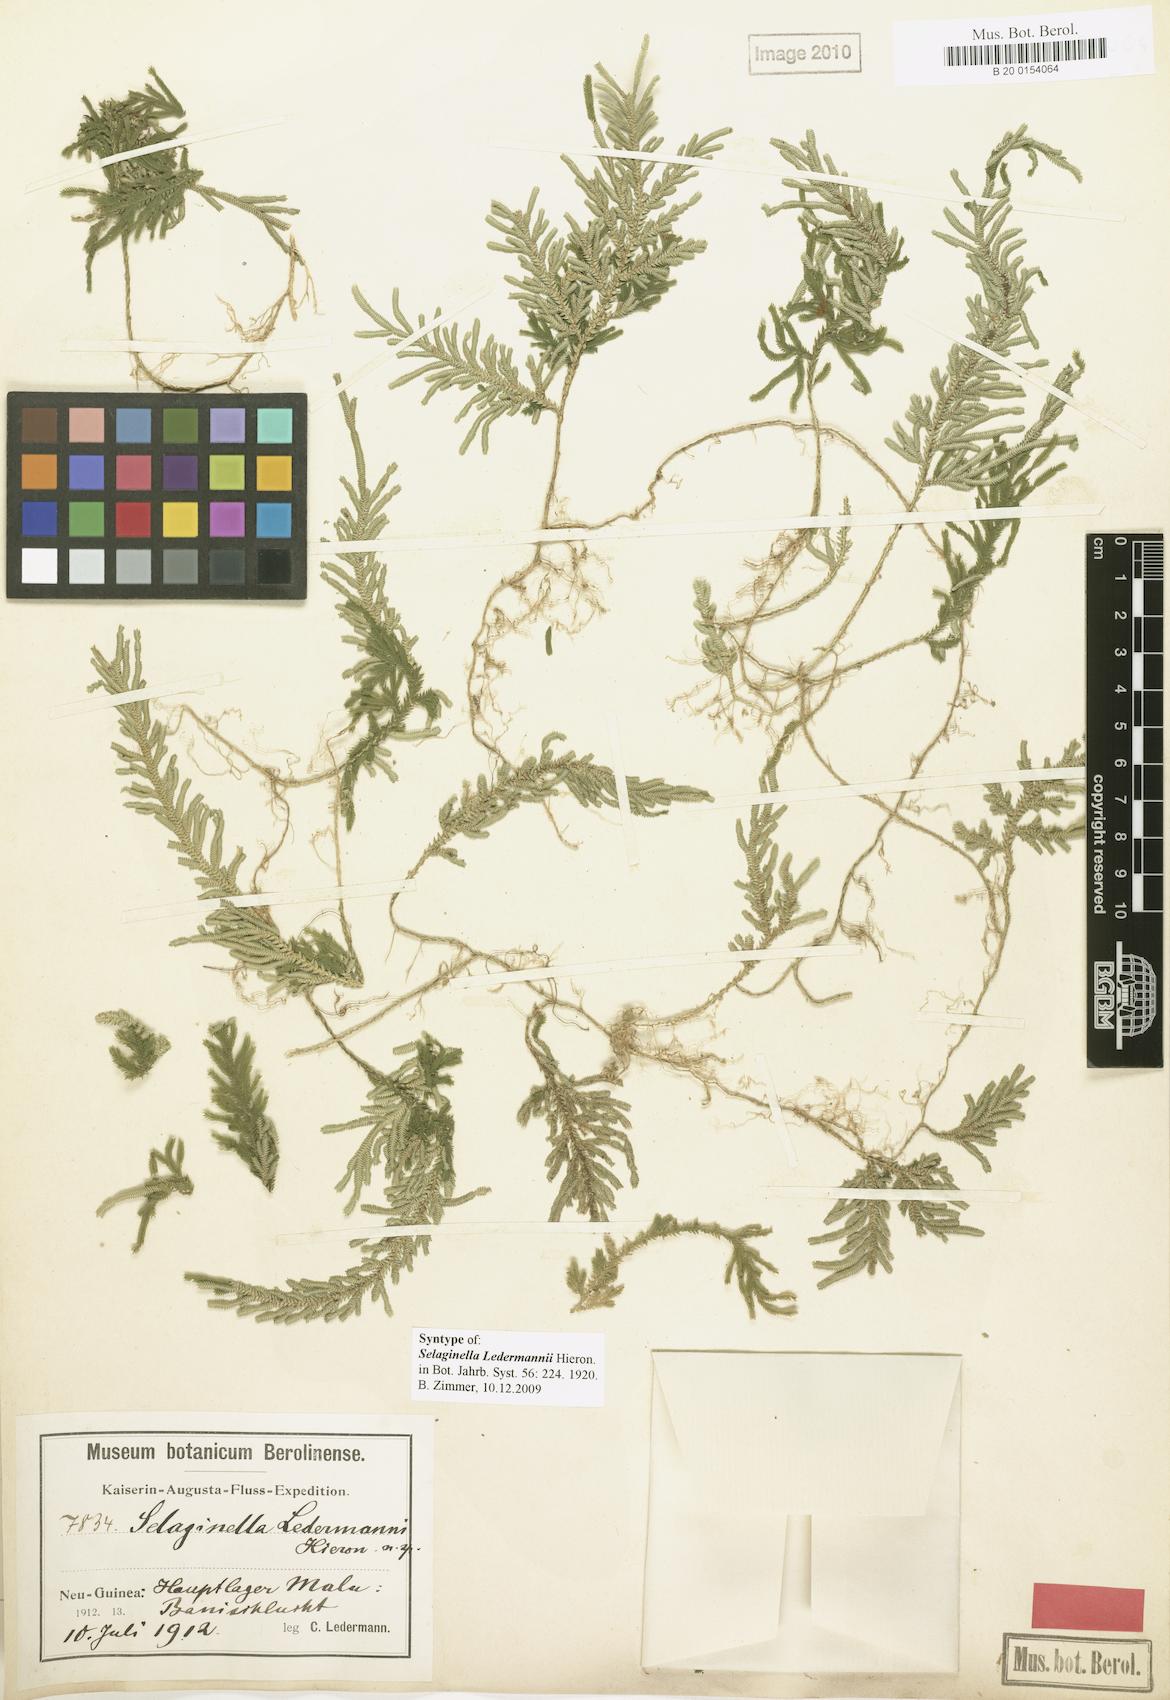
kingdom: Plantae
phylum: Tracheophyta
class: Lycopodiopsida
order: Selaginellales
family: Selaginellaceae
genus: Selaginella
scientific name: Selaginella ledermannii
